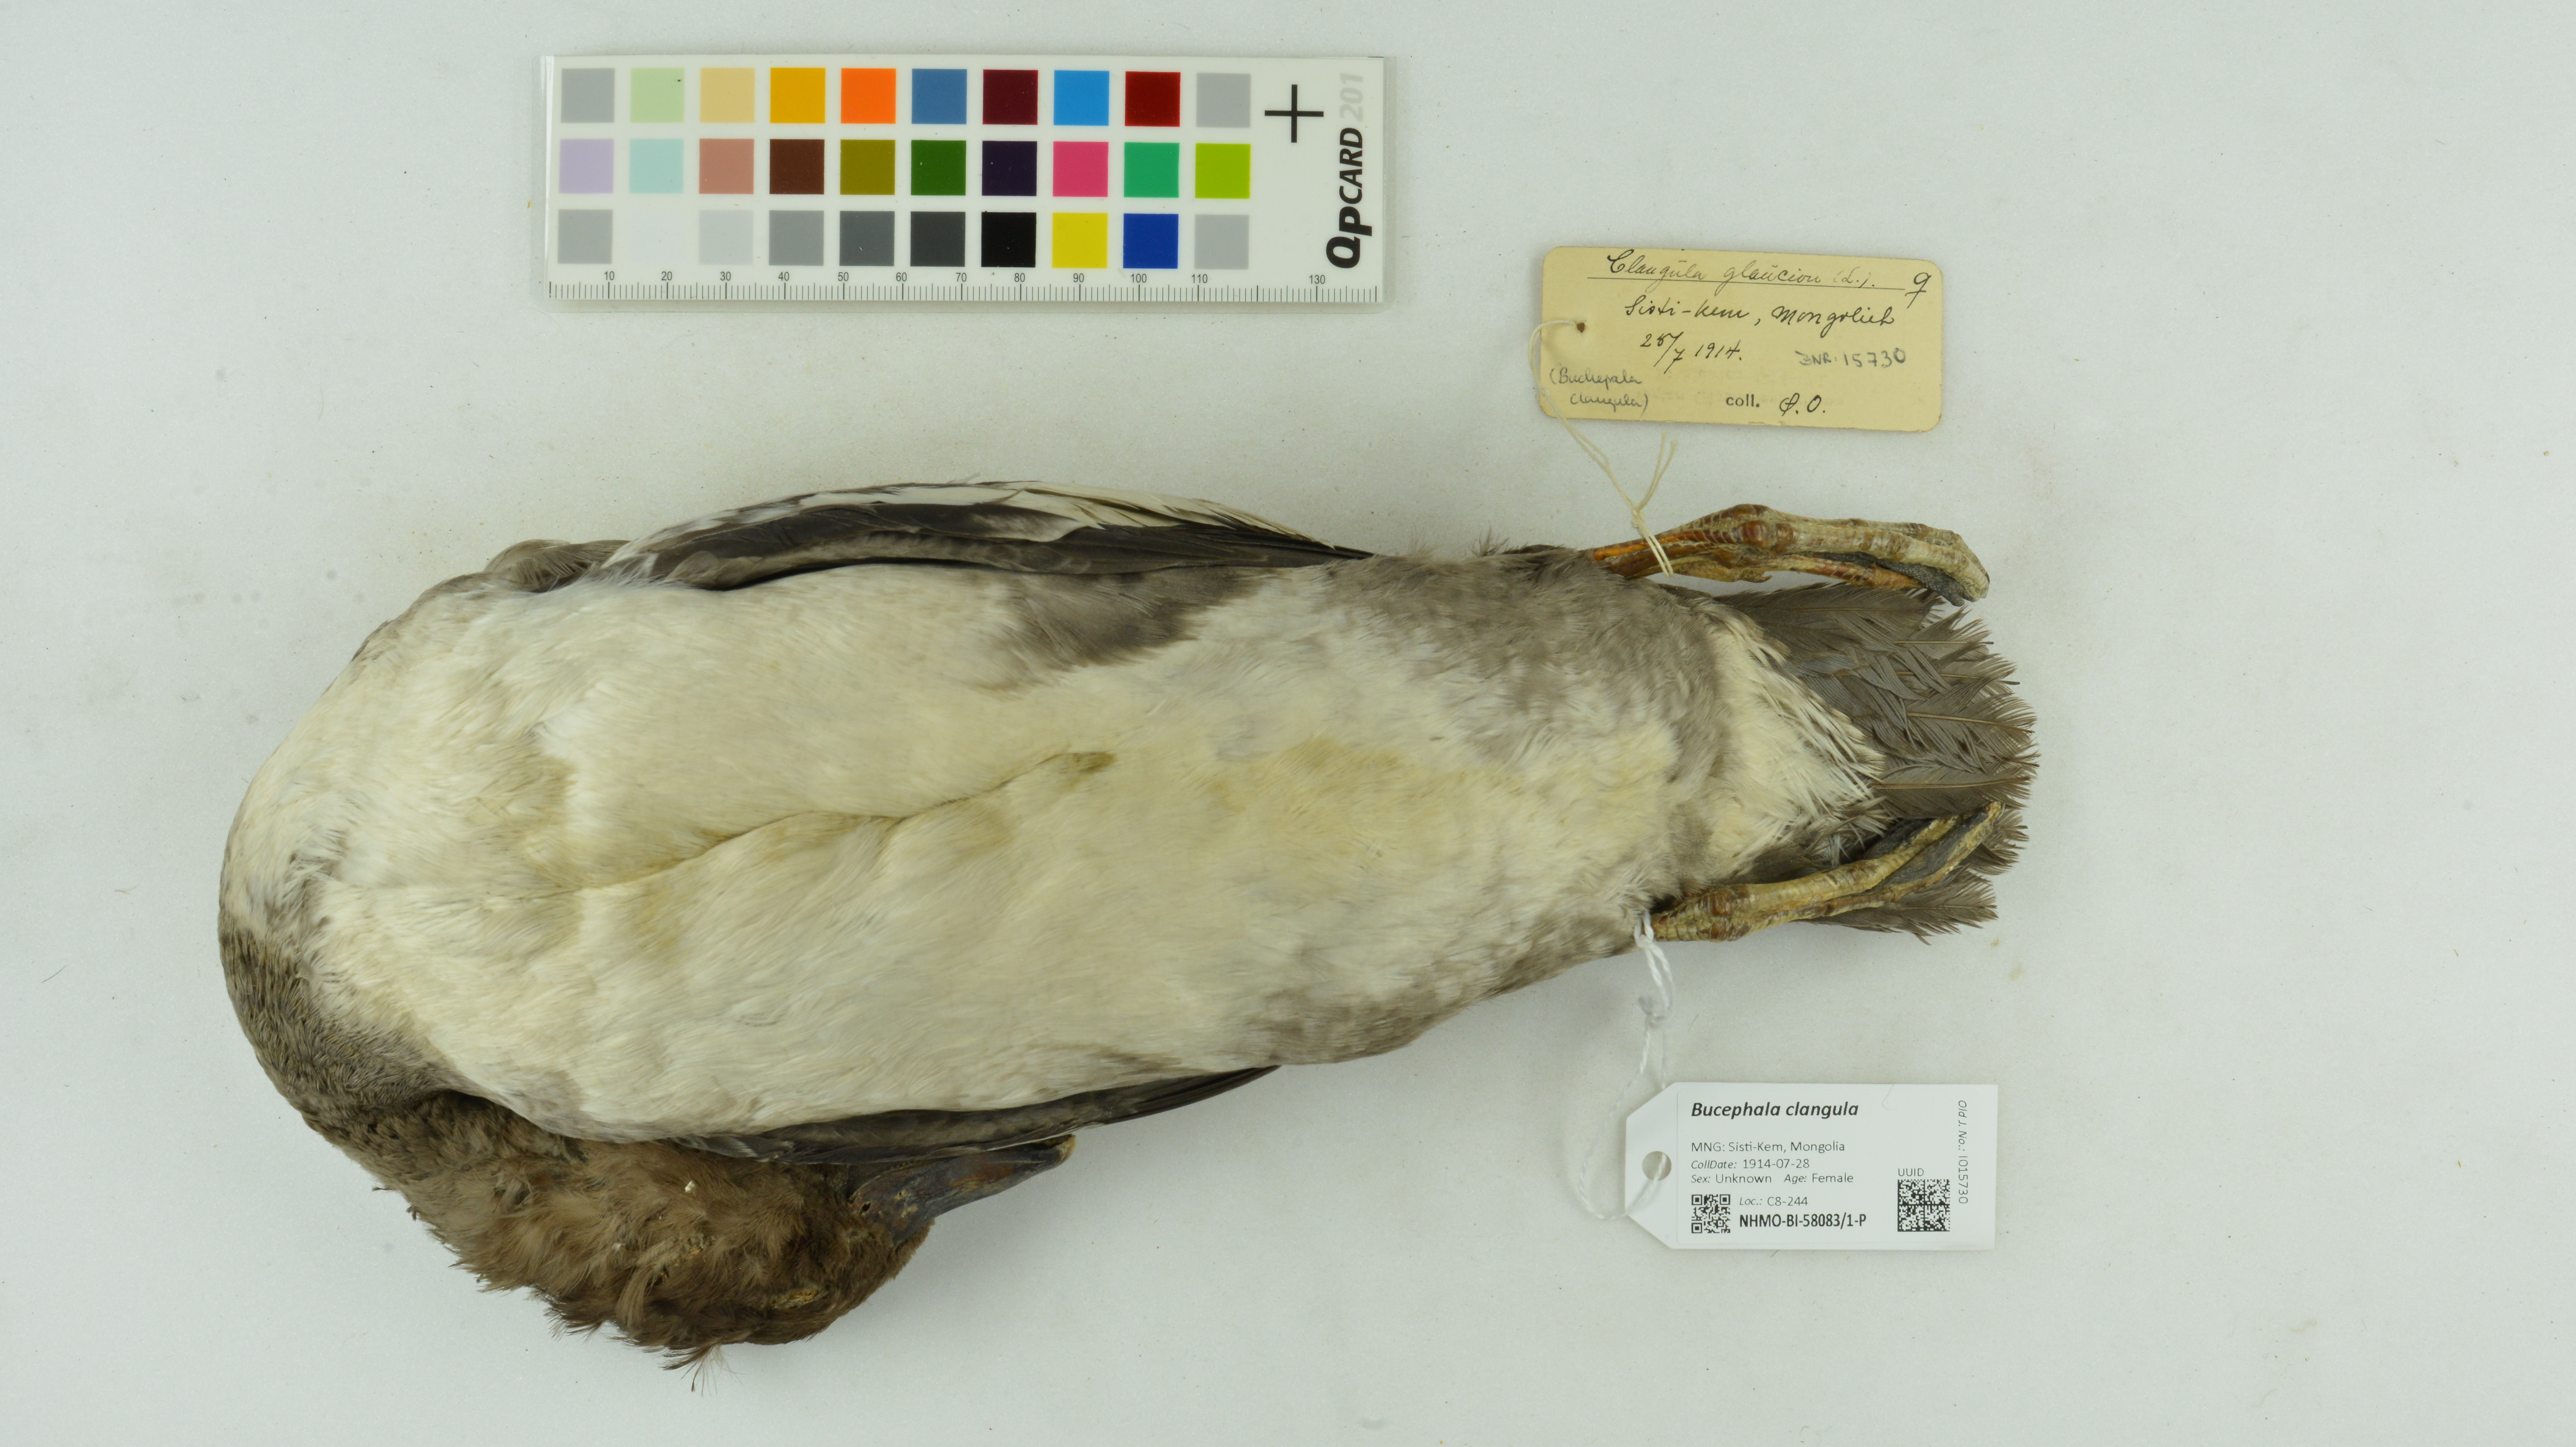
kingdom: Animalia
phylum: Chordata
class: Aves
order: Anseriformes
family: Anatidae
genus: Bucephala
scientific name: Bucephala clangula
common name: Common goldeneye
